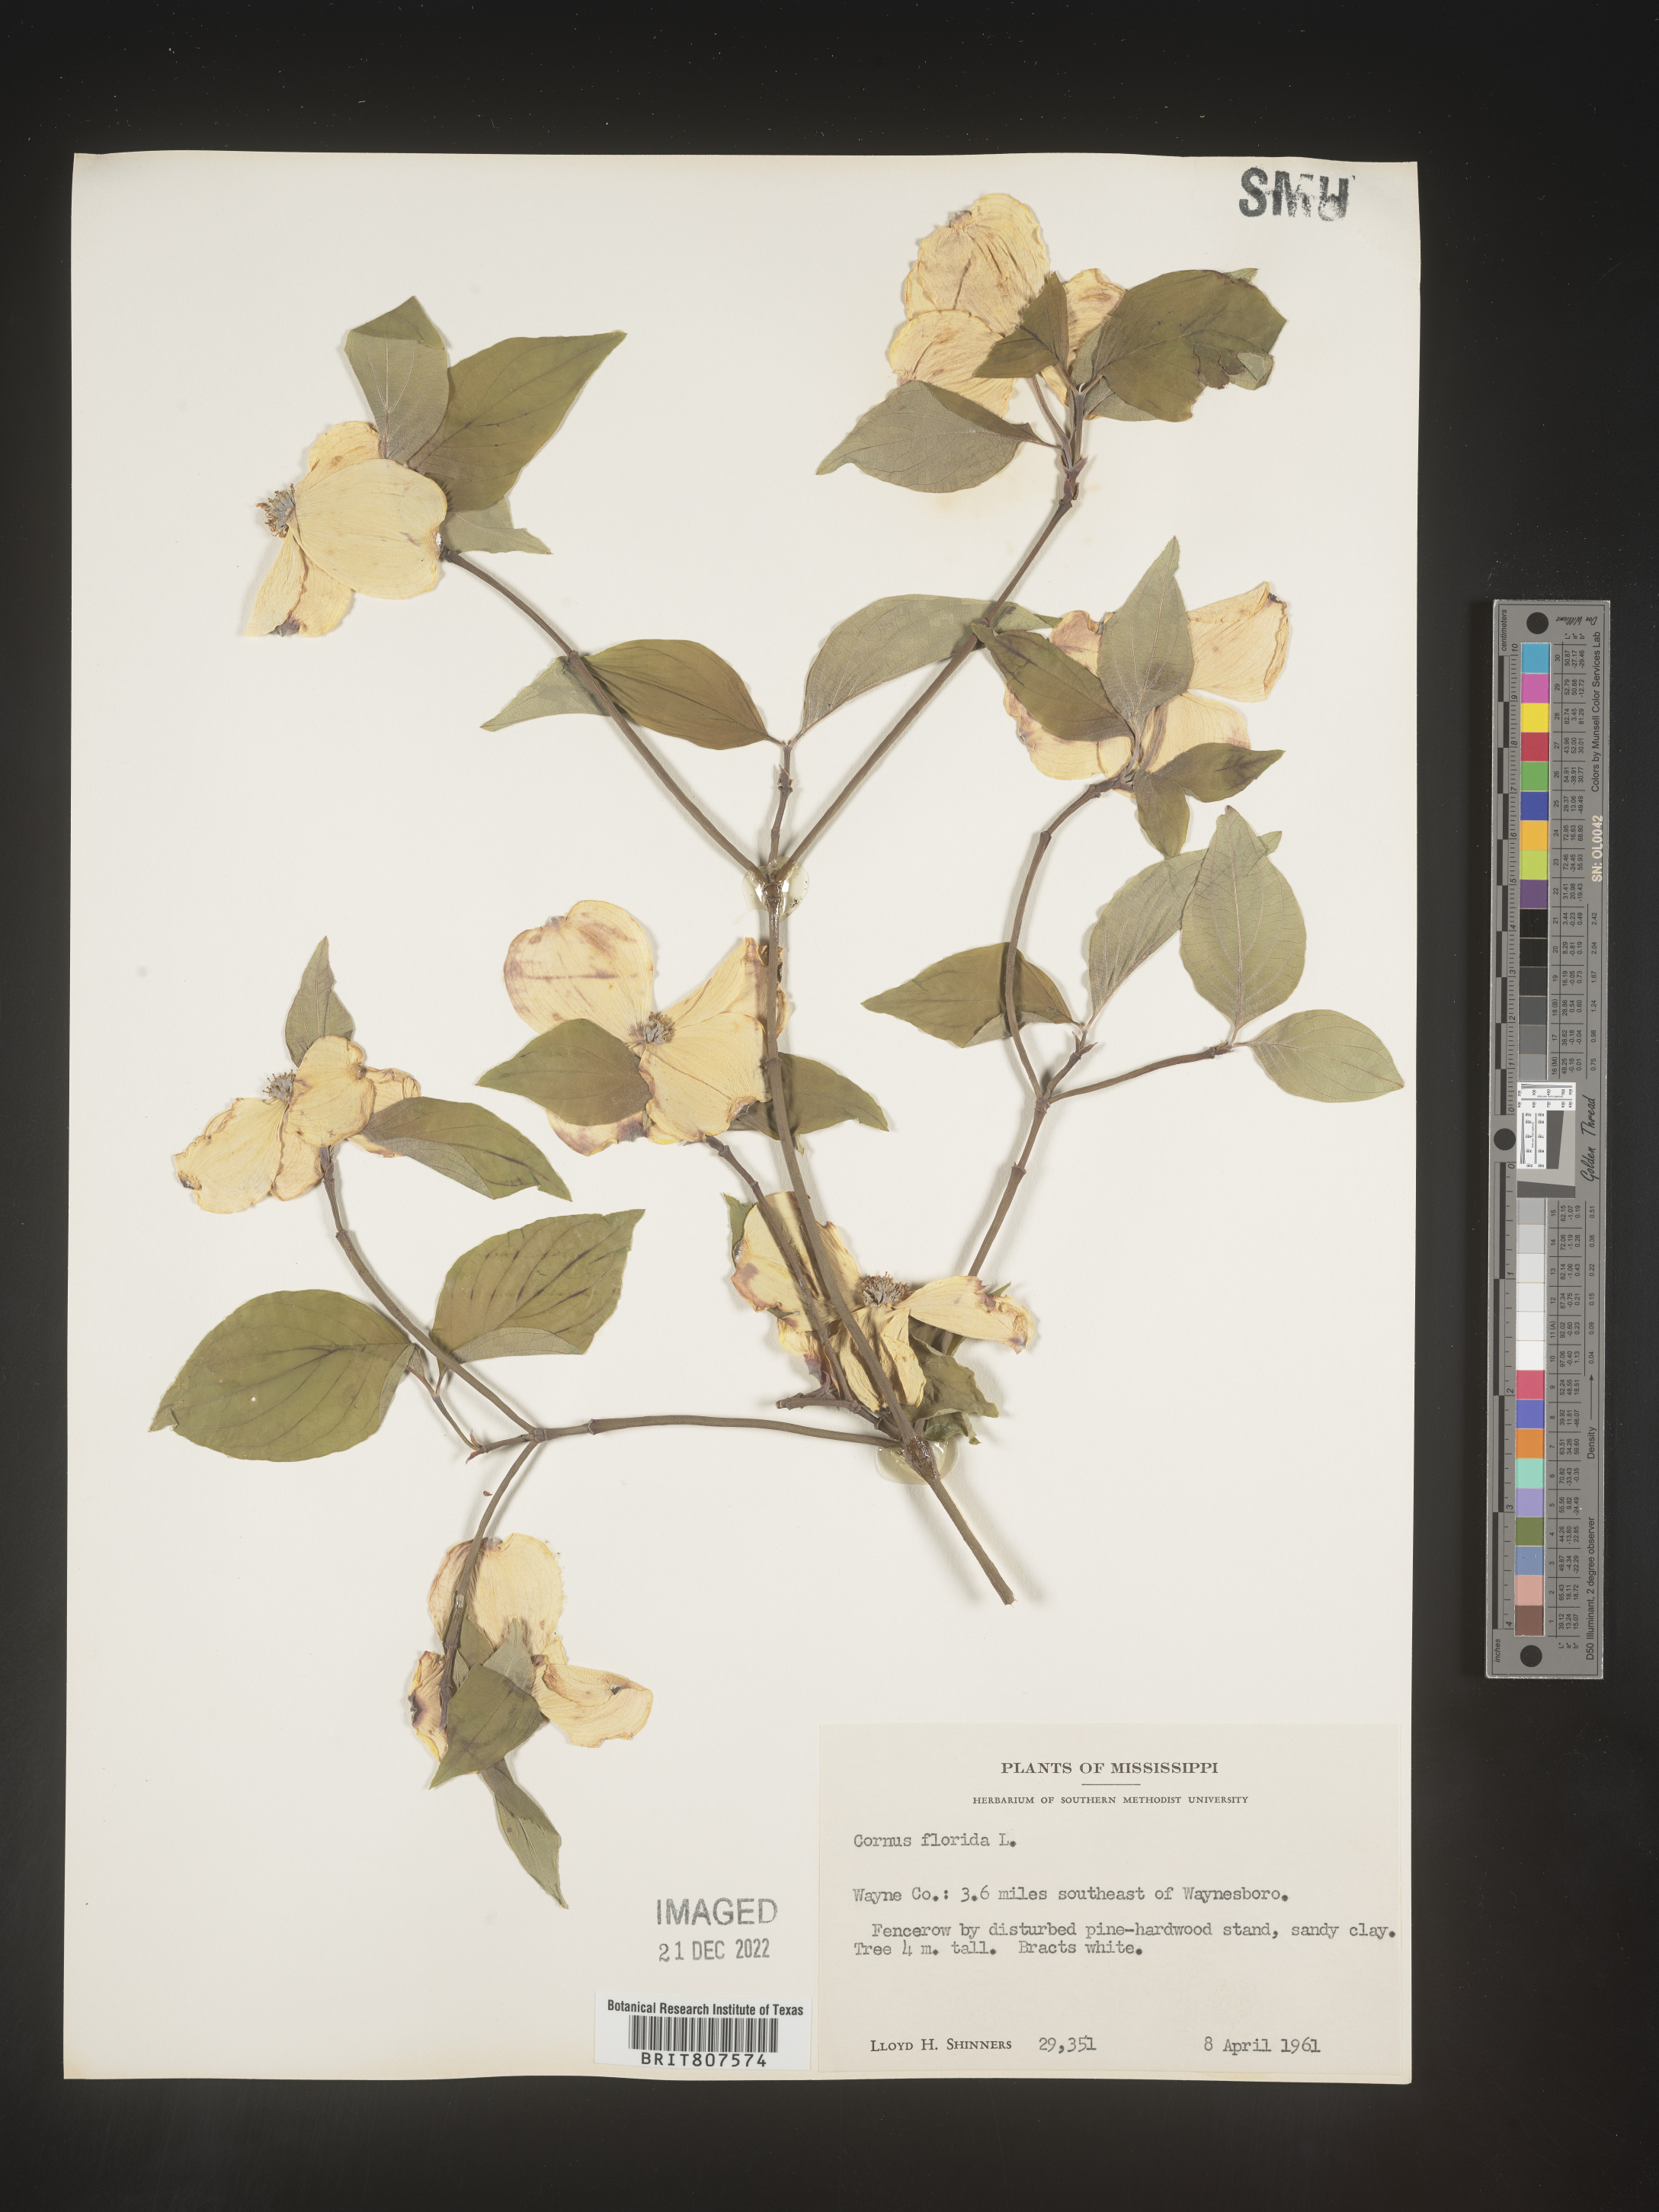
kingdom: Plantae
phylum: Tracheophyta
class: Magnoliopsida
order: Cornales
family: Cornaceae
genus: Cornus
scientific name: Cornus florida
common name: Flowering dogwood
